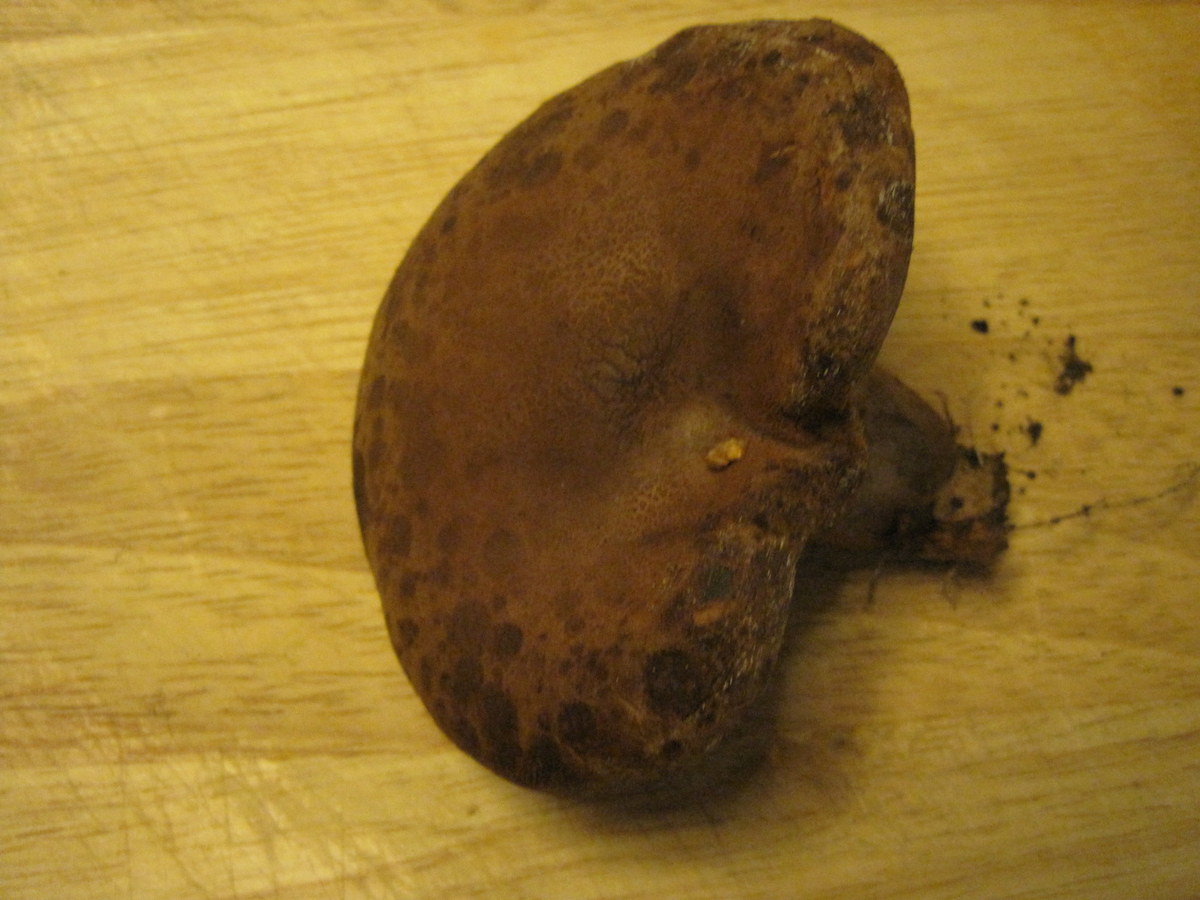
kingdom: Fungi
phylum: Basidiomycota
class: Agaricomycetes
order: Boletales
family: Paxillaceae
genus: Paxillus
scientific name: Paxillus obscurisporus
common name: mahognisporet netbladhat
